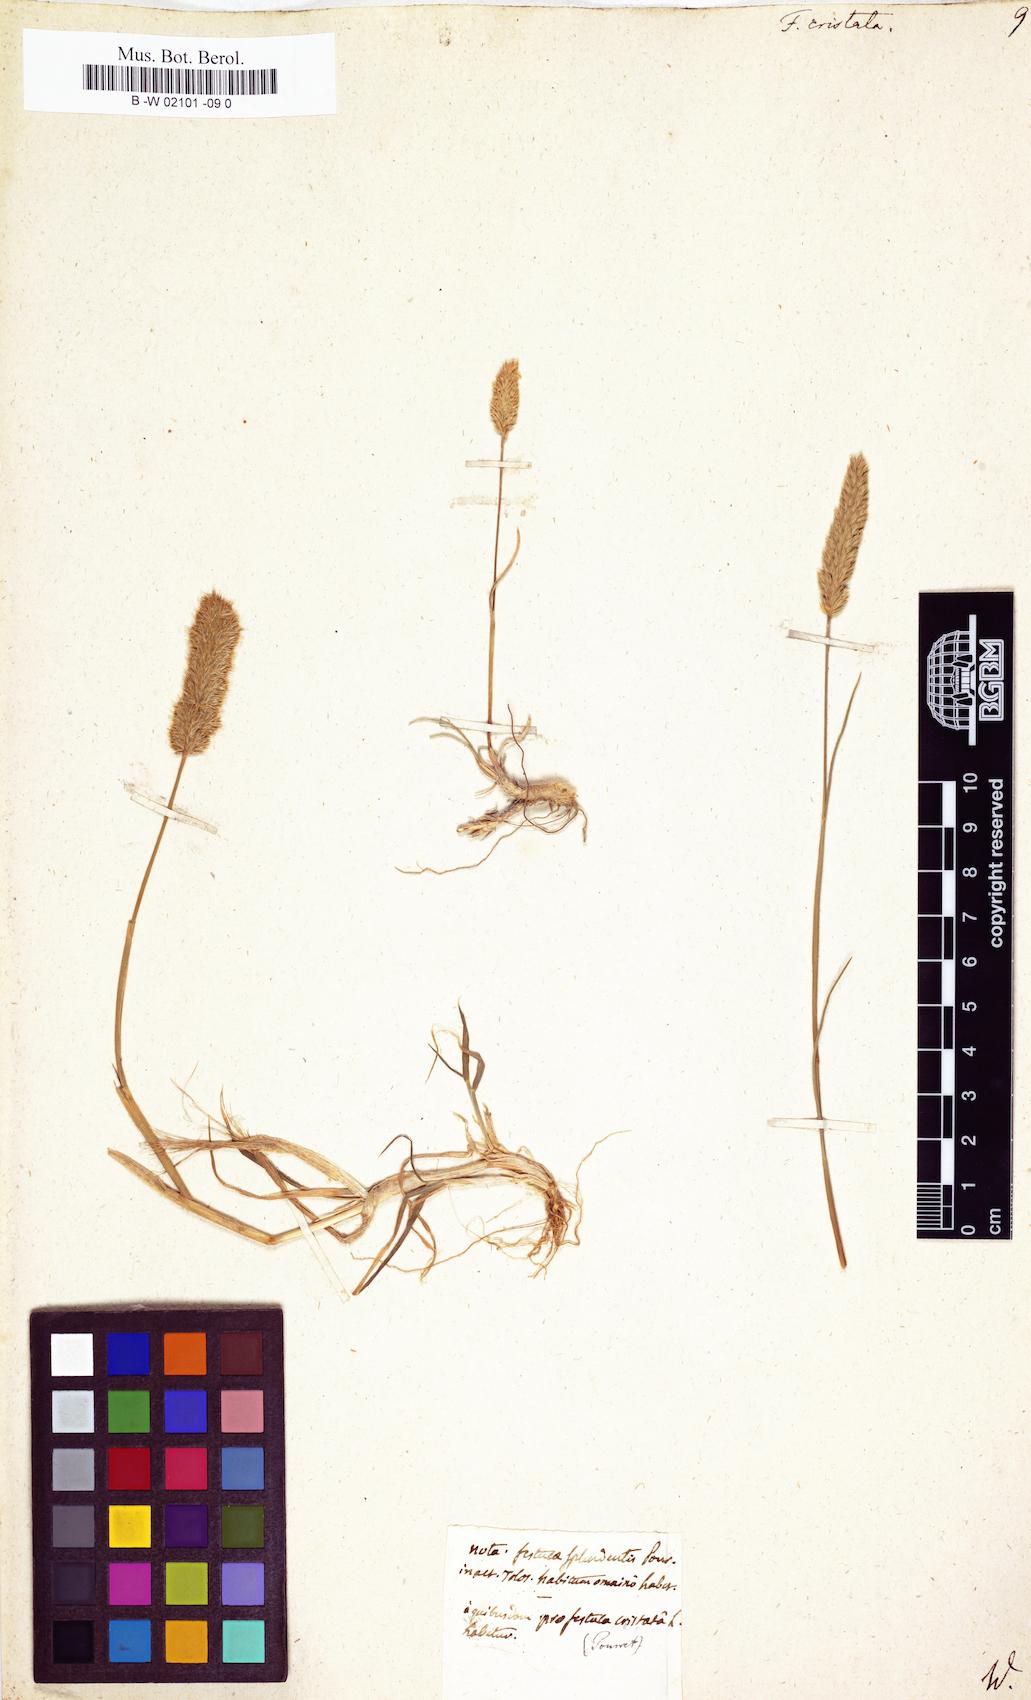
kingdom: Plantae
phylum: Tracheophyta
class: Liliopsida
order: Poales
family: Poaceae
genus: Rostraria
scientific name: Rostraria cristata
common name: Mediterranean hair-grass
